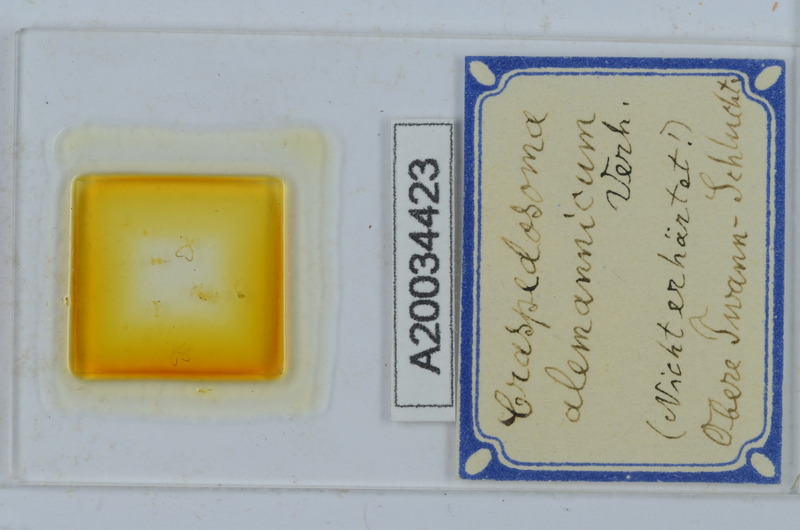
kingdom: Animalia
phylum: Arthropoda
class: Diplopoda
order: Chordeumatida
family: Craspedosomatidae
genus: Craspedosoma
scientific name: Craspedosoma alemannicum
